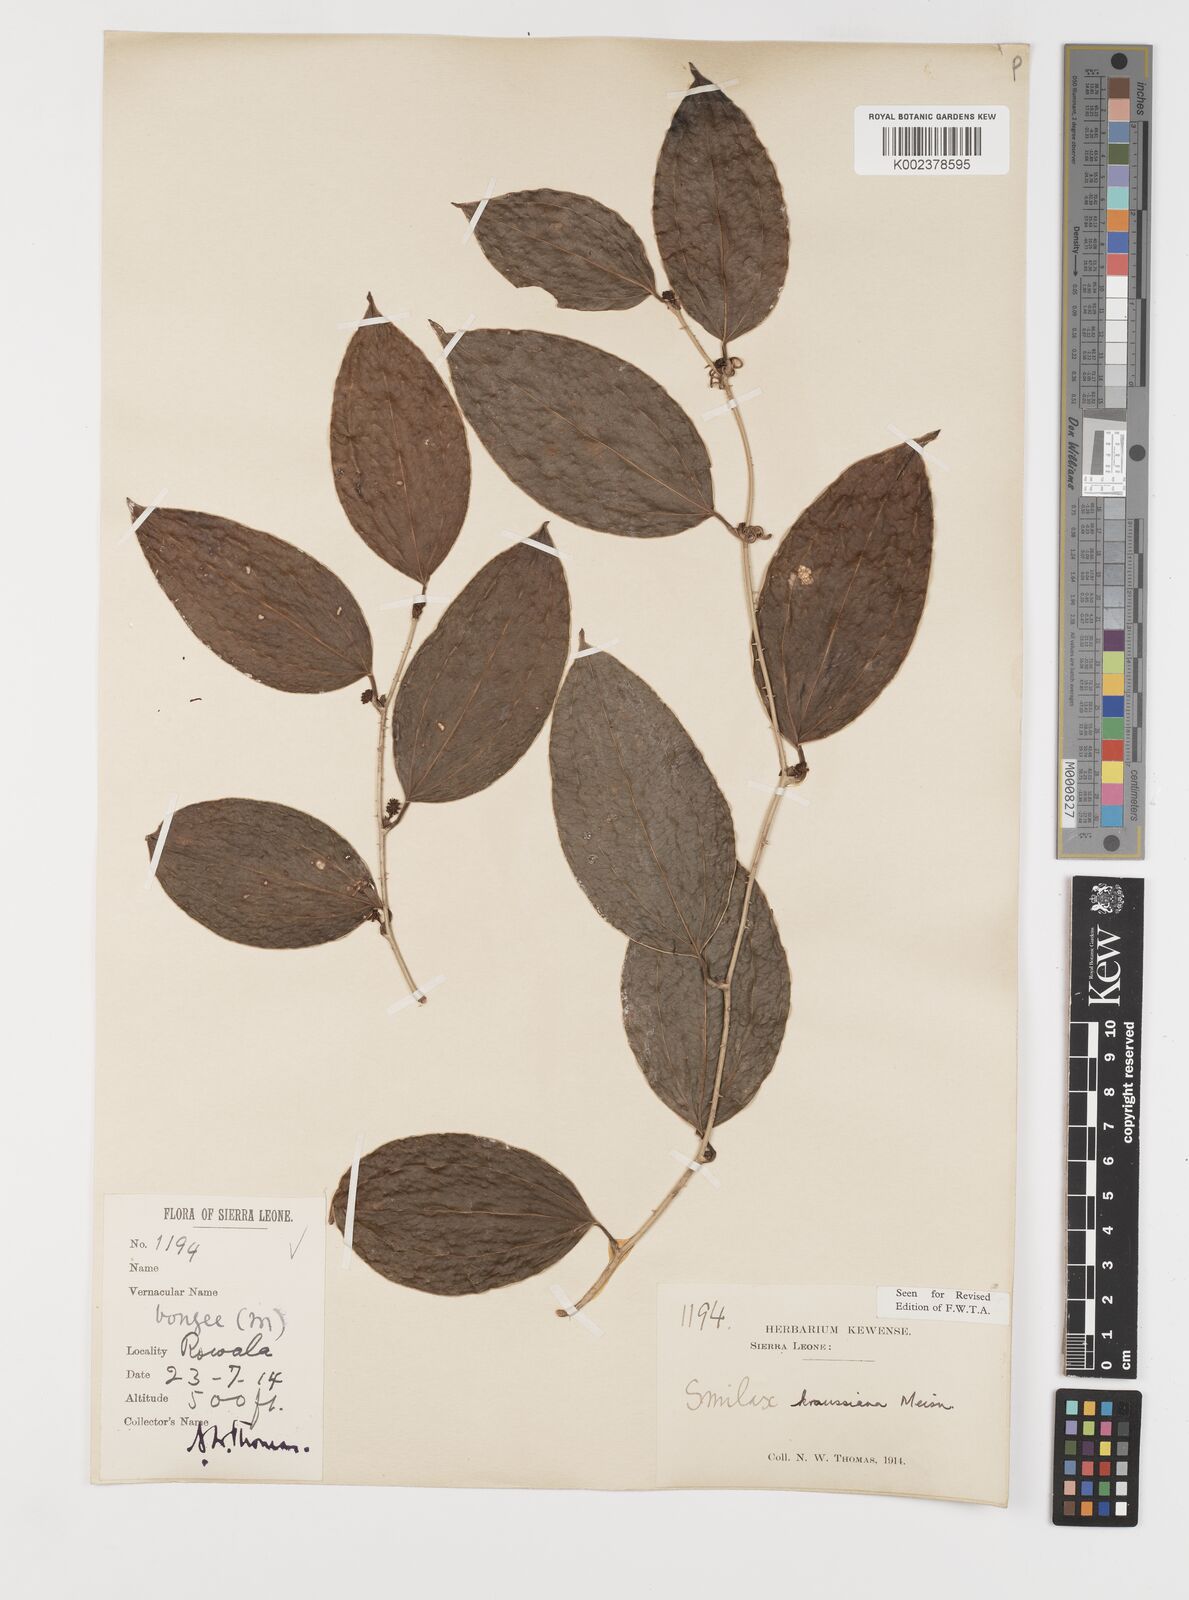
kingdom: Plantae
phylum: Tracheophyta
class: Liliopsida
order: Liliales
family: Smilacaceae
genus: Smilax
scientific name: Smilax anceps
